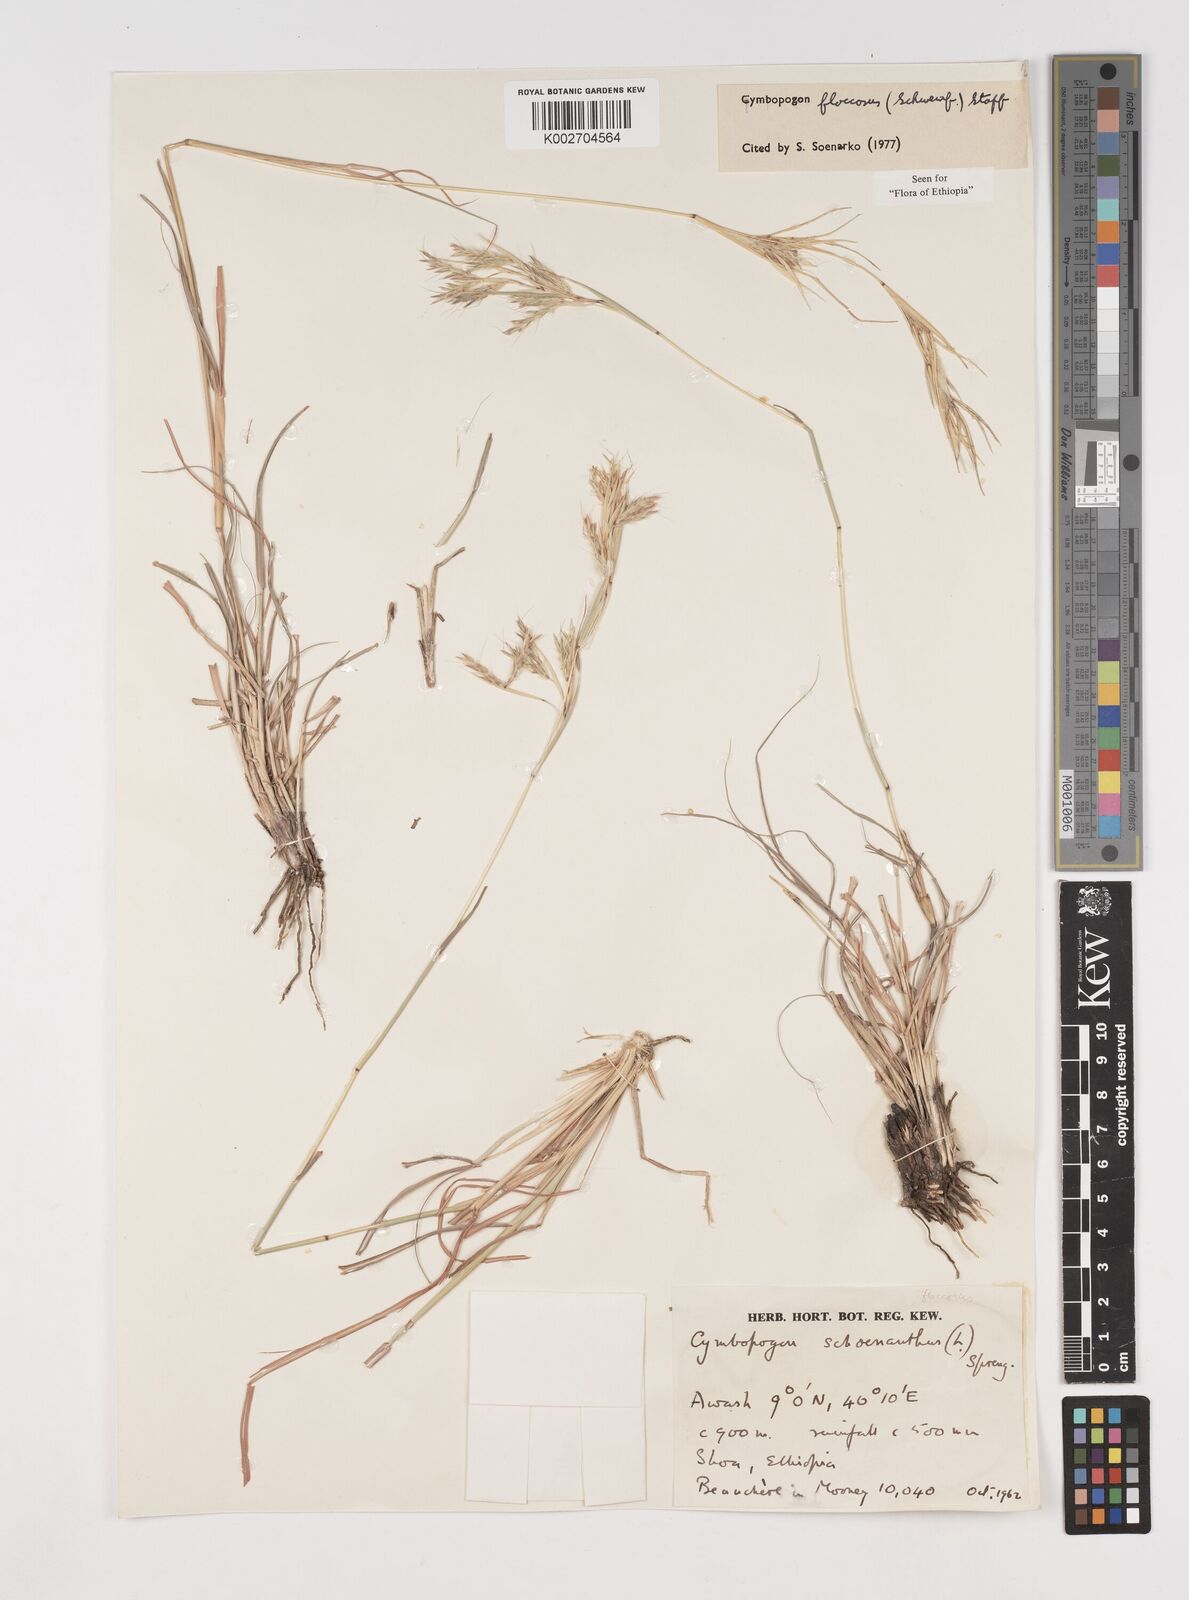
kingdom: Plantae
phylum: Tracheophyta
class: Liliopsida
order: Poales
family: Poaceae
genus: Cymbopogon
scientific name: Cymbopogon
